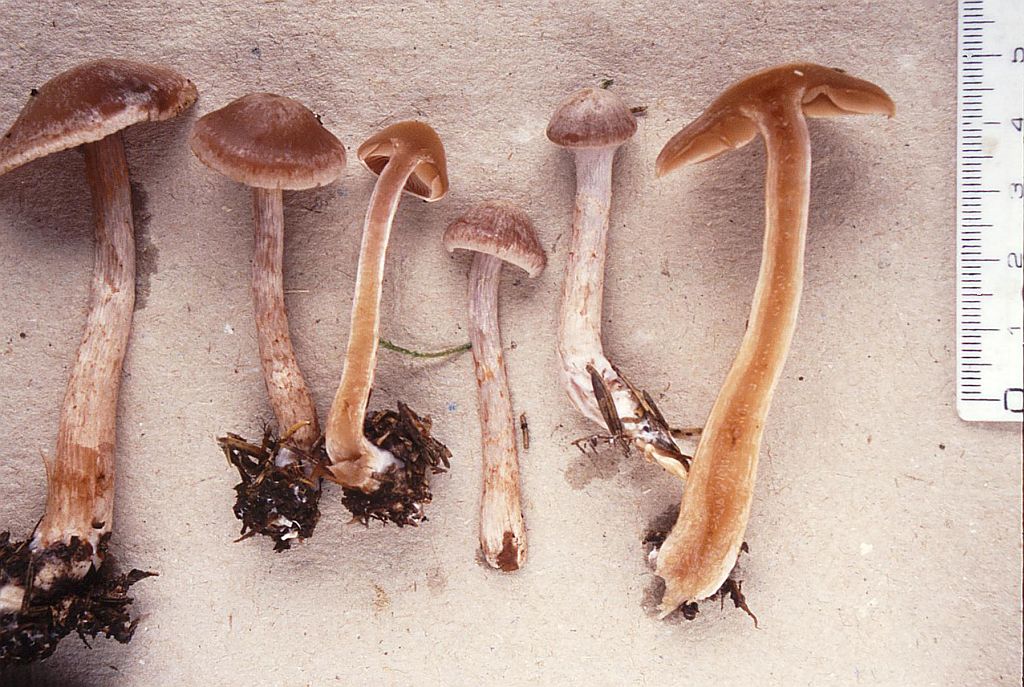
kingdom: Fungi
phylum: Basidiomycota
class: Agaricomycetes
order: Agaricales
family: Cortinariaceae
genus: Cortinarius
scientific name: Cortinarius spilomeus
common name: rødfnugget slørhat
